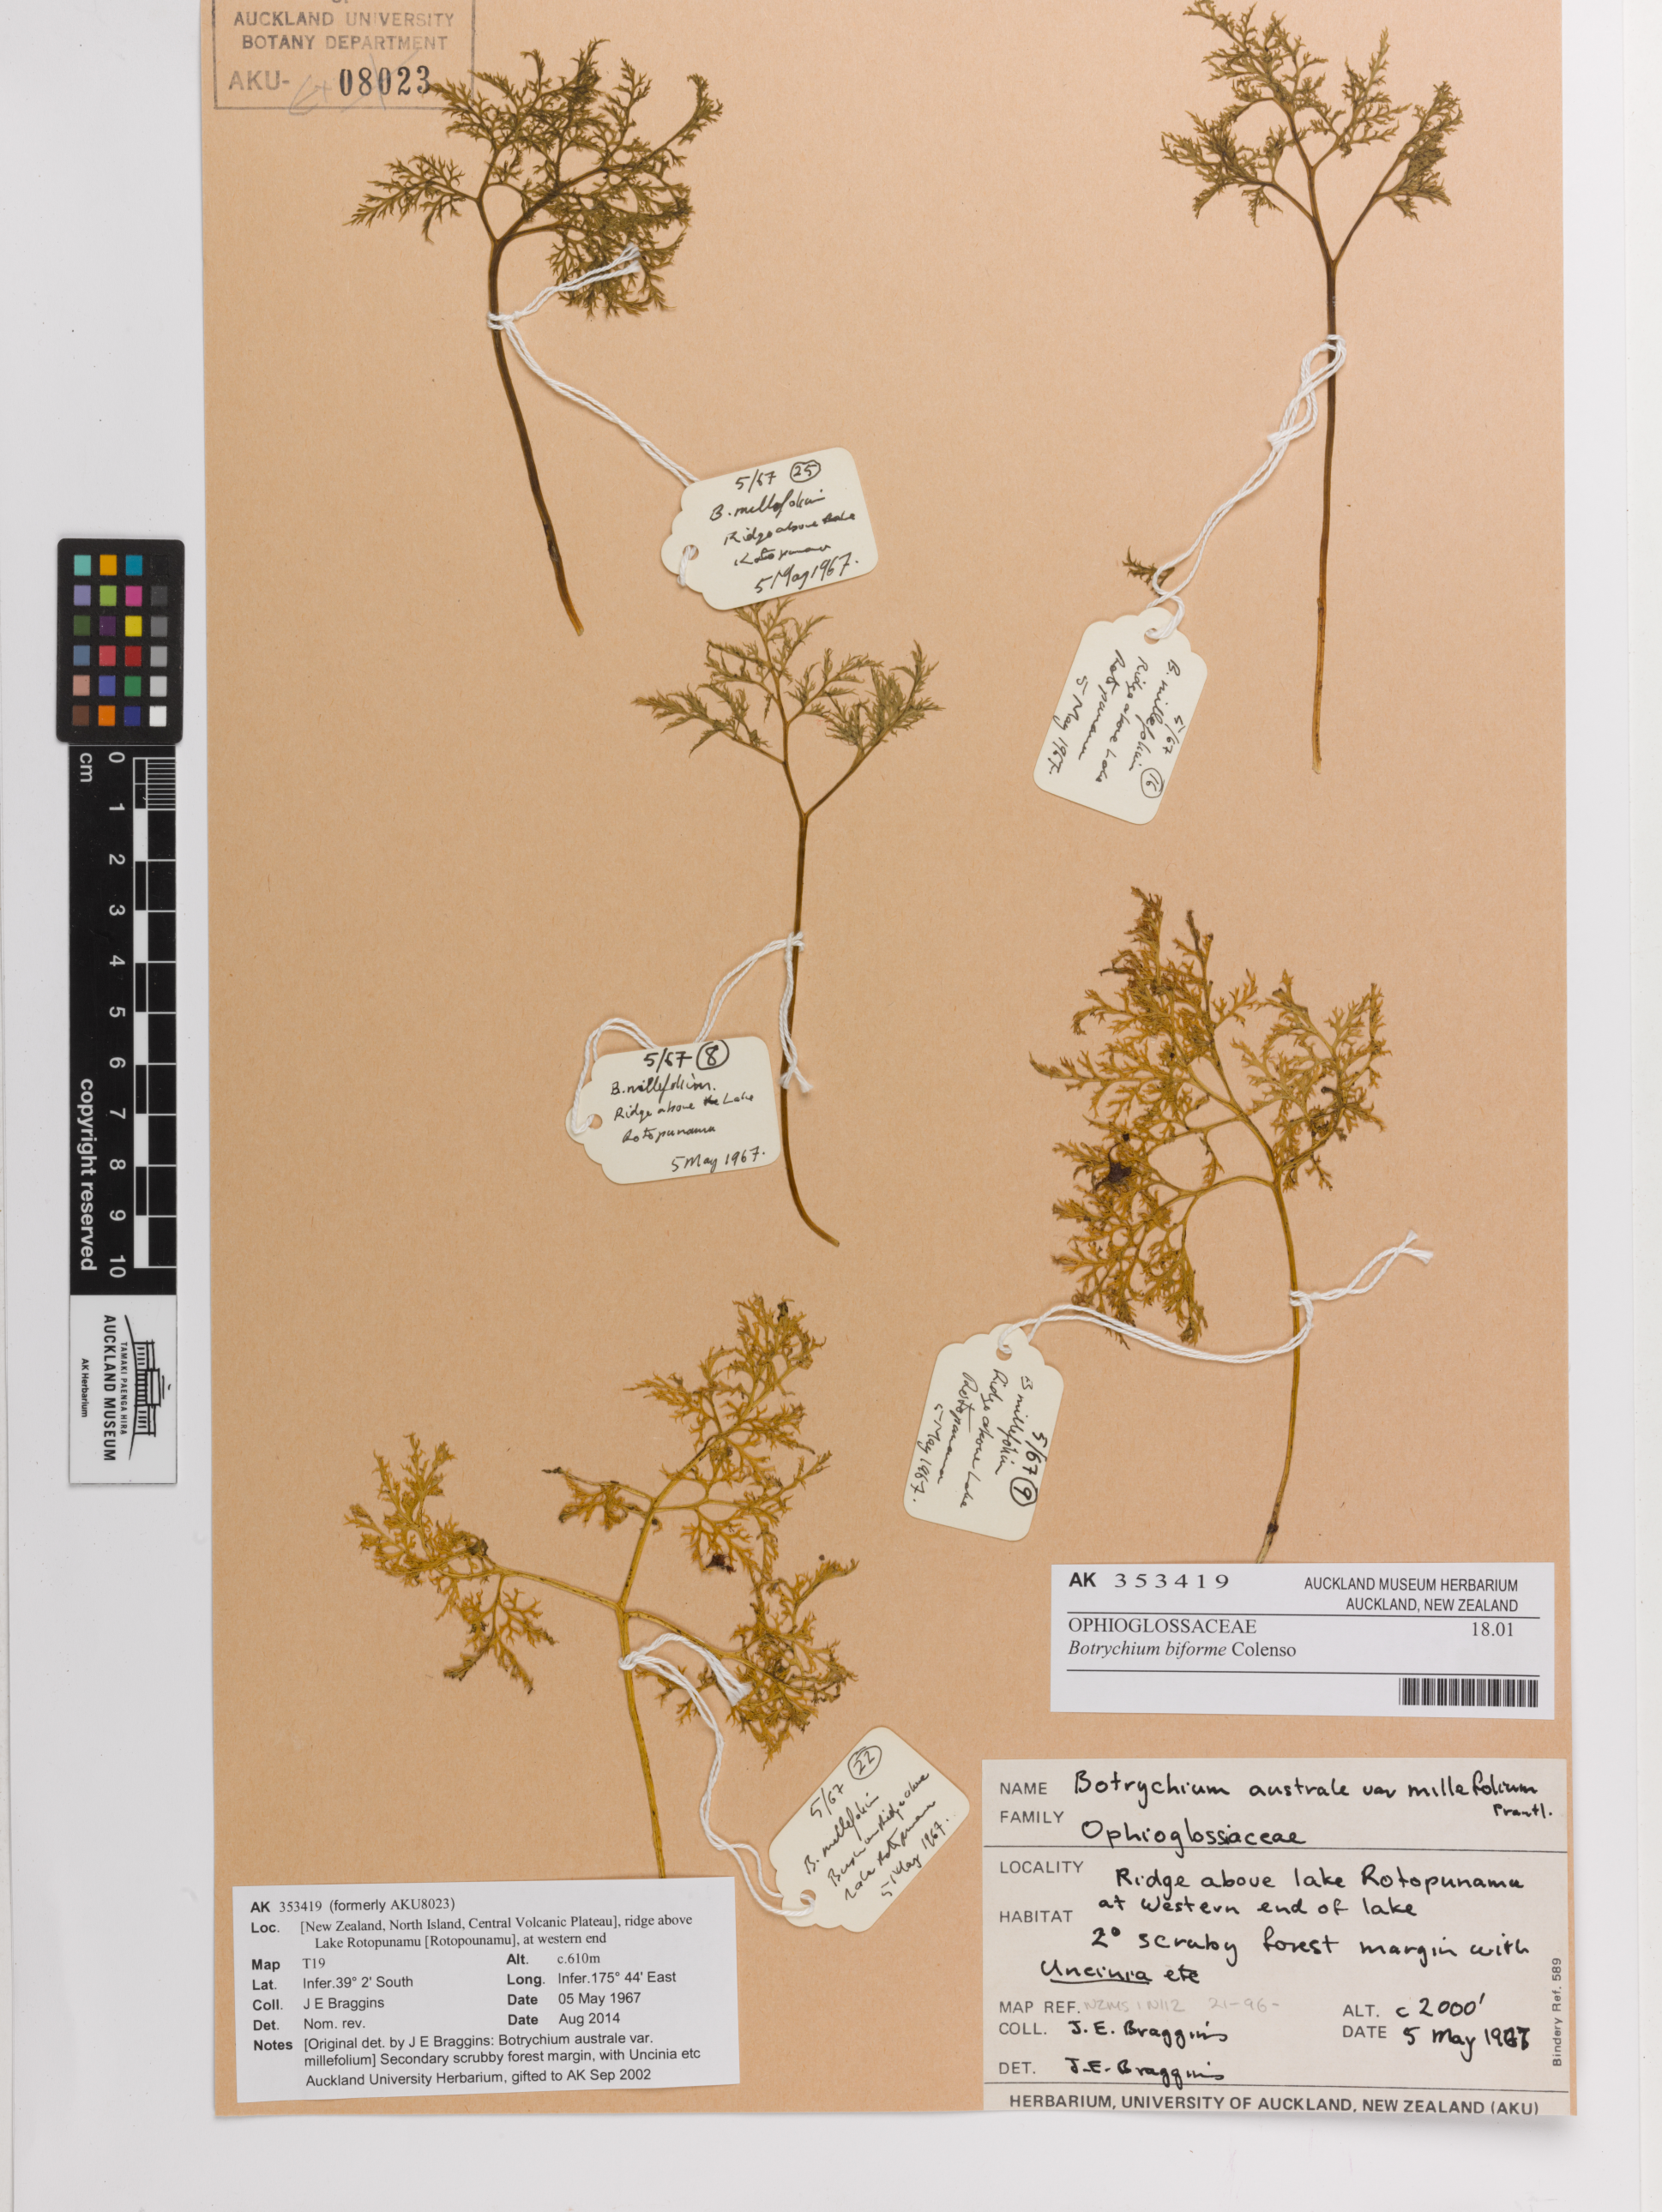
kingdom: Plantae
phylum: Tracheophyta
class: Polypodiopsida
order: Ophioglossales
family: Ophioglossaceae
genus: Sceptridium
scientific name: Sceptridium biforme
